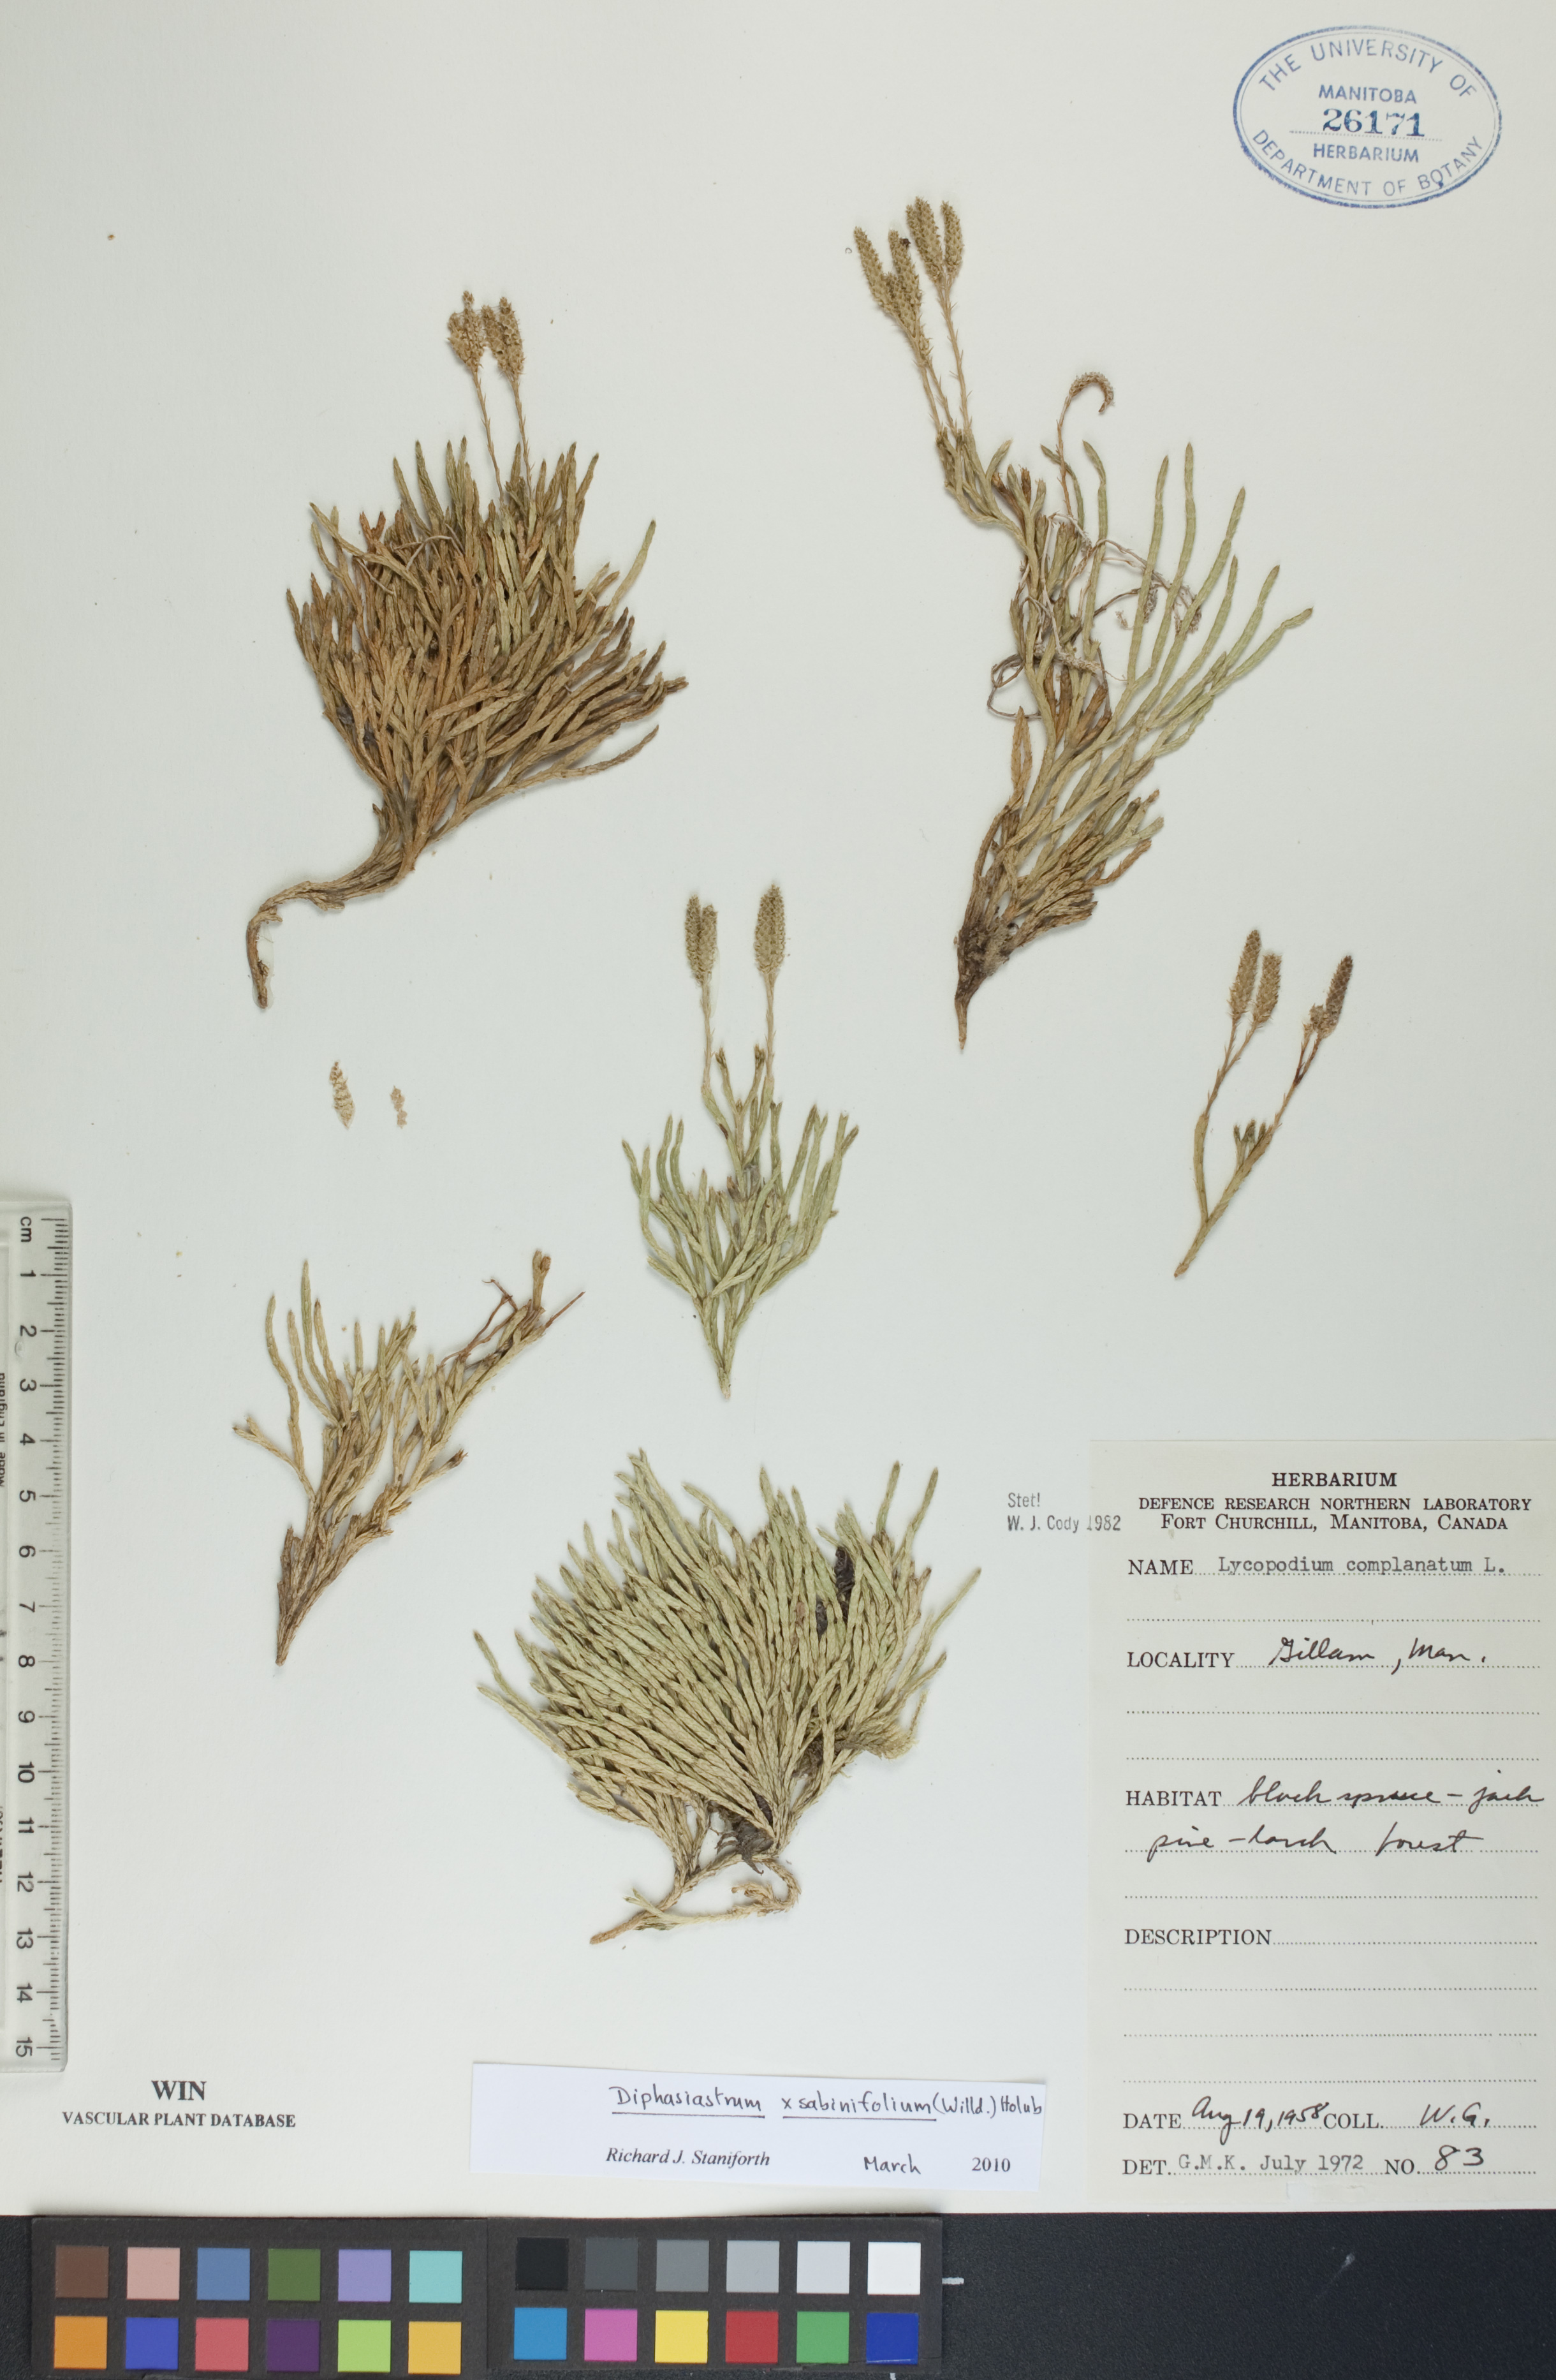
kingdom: Plantae
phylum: Tracheophyta
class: Lycopodiopsida
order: Lycopodiales
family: Lycopodiaceae
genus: Diphasiastrum
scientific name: Diphasiastrum sabinifolium
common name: Juniper clubmoss
